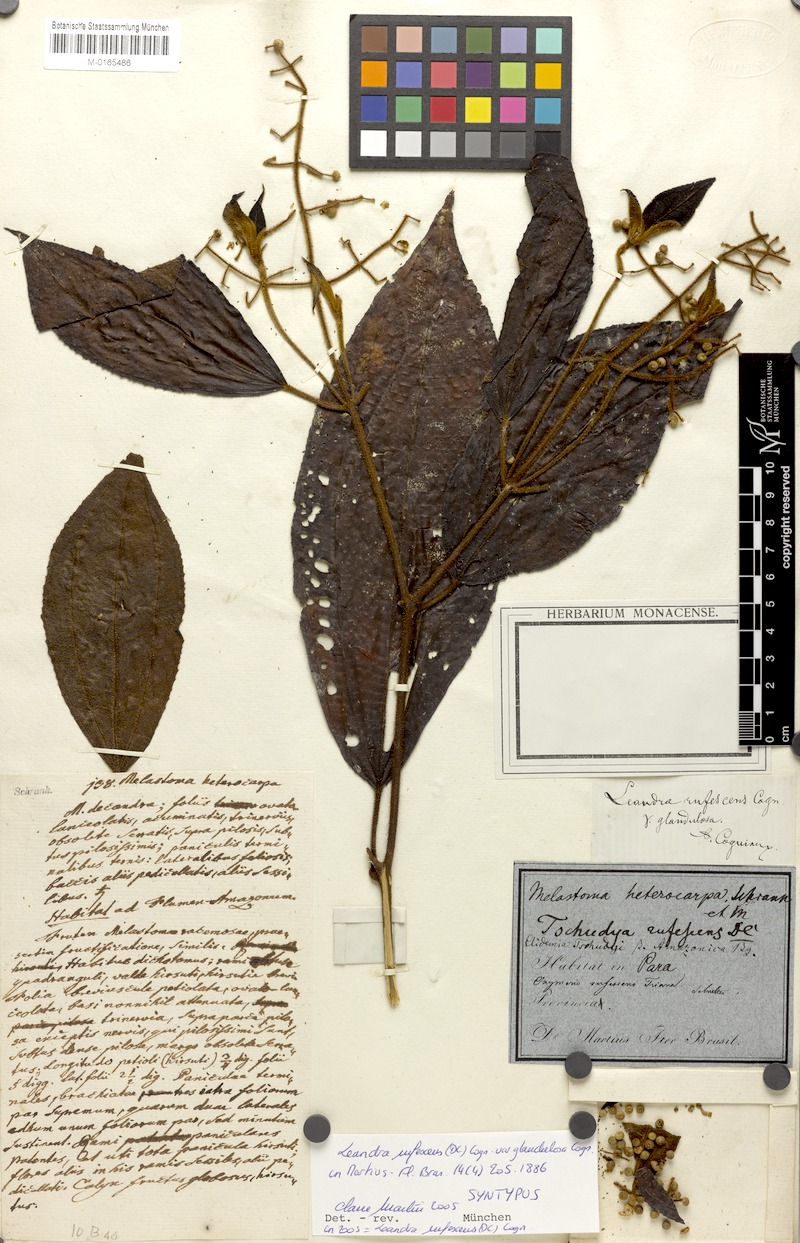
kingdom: Plantae
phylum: Tracheophyta
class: Magnoliopsida
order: Myrtales
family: Melastomataceae
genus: Miconia
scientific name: Miconia asperiuscula
